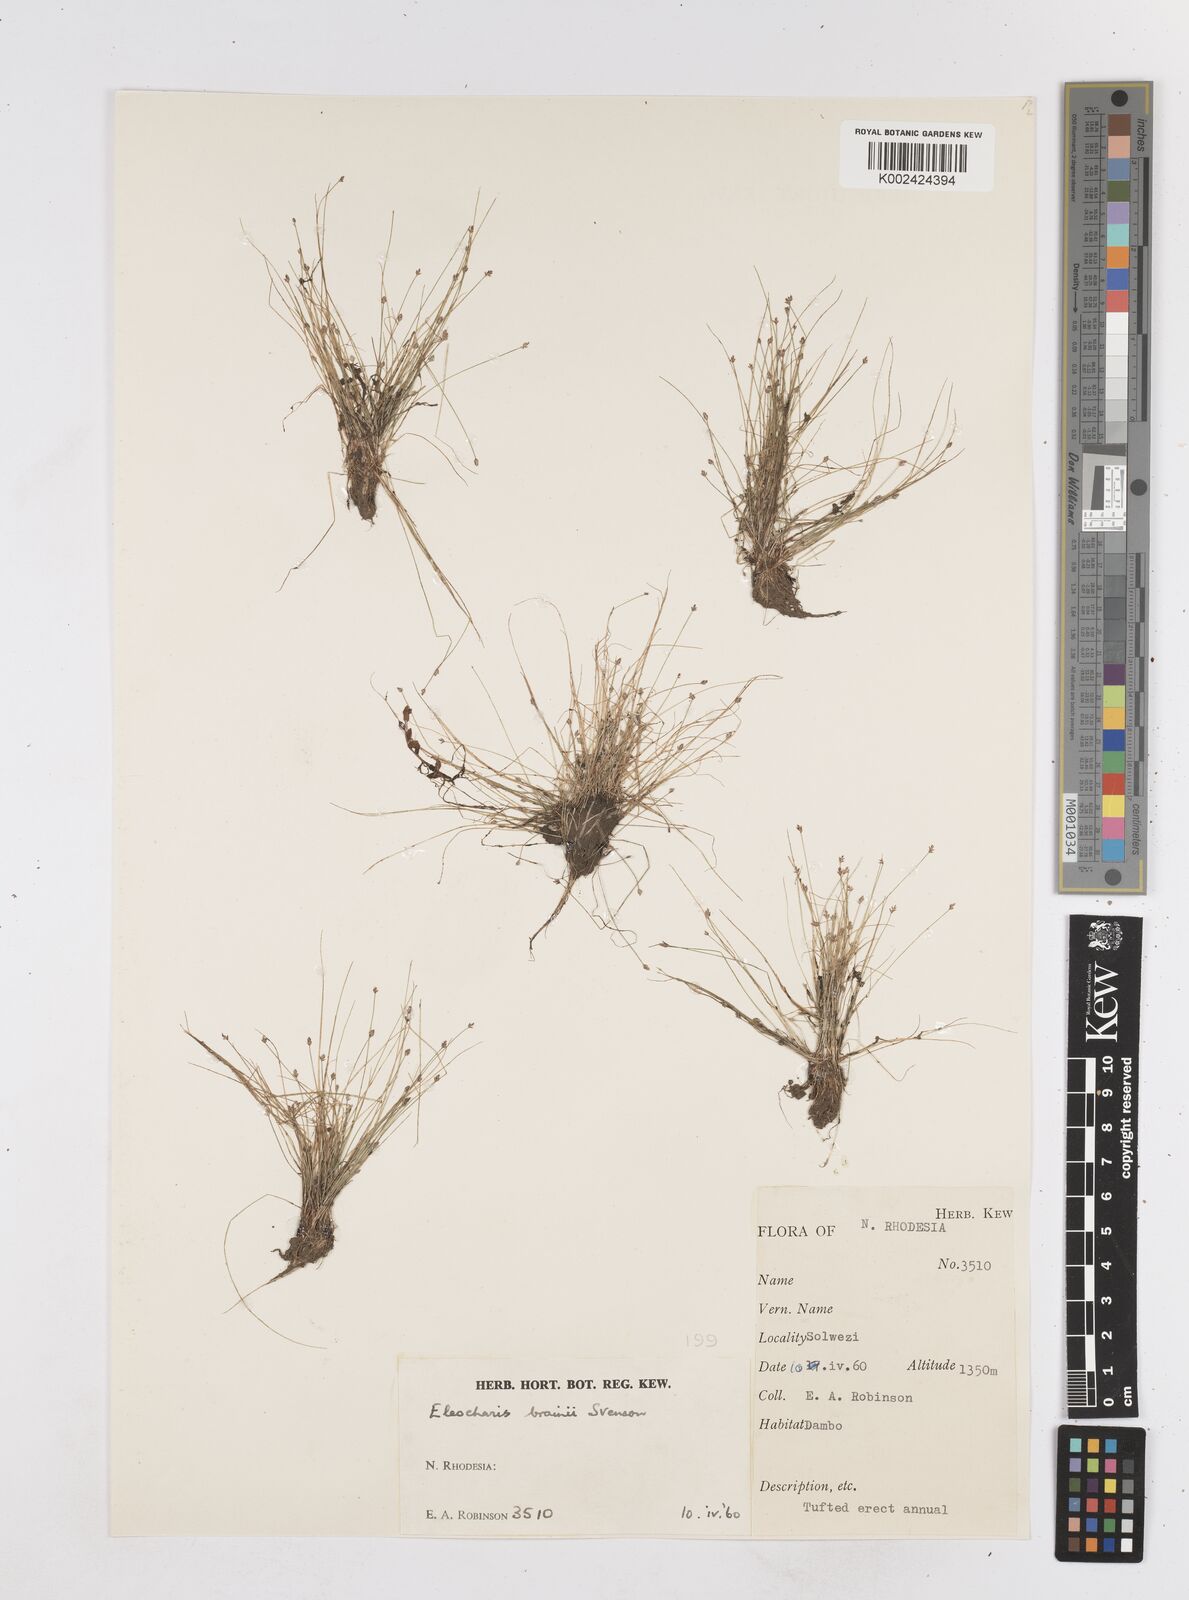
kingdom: Plantae
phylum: Tracheophyta
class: Liliopsida
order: Poales
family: Cyperaceae
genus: Eleocharis
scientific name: Eleocharis brainii
